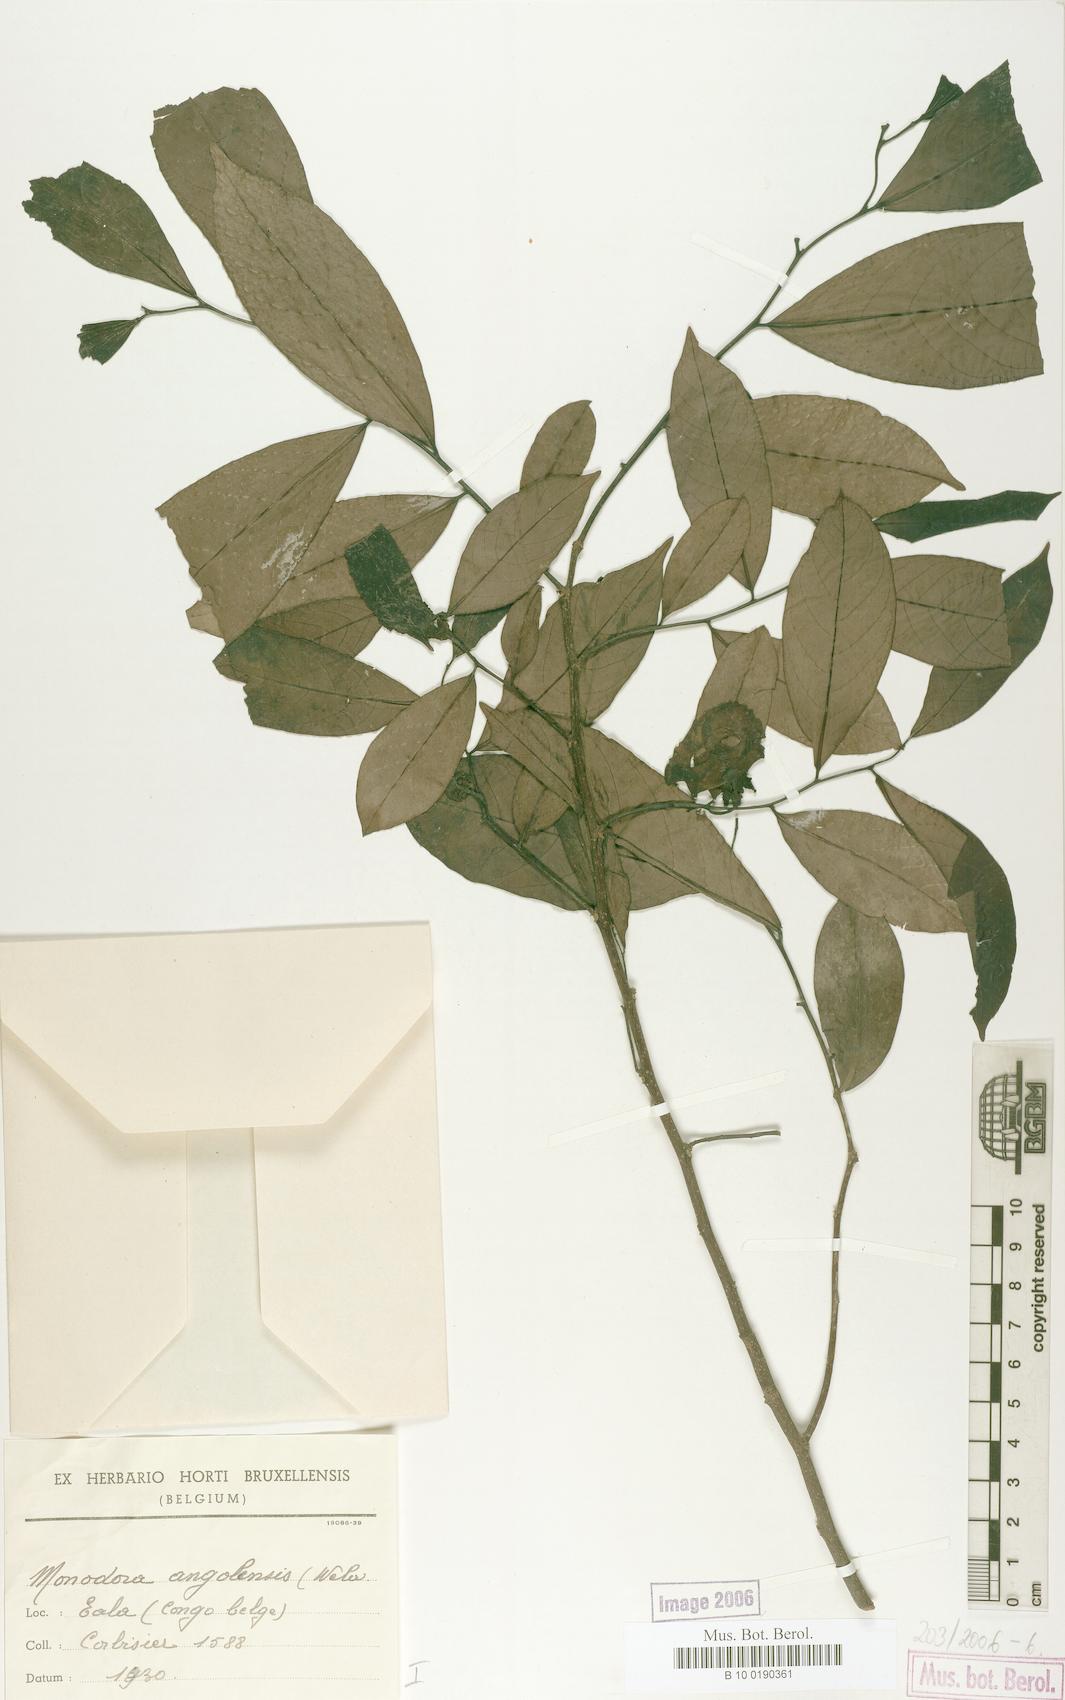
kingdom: Plantae
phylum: Tracheophyta
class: Magnoliopsida
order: Magnoliales
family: Annonaceae
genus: Monodora
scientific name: Monodora angolensis
